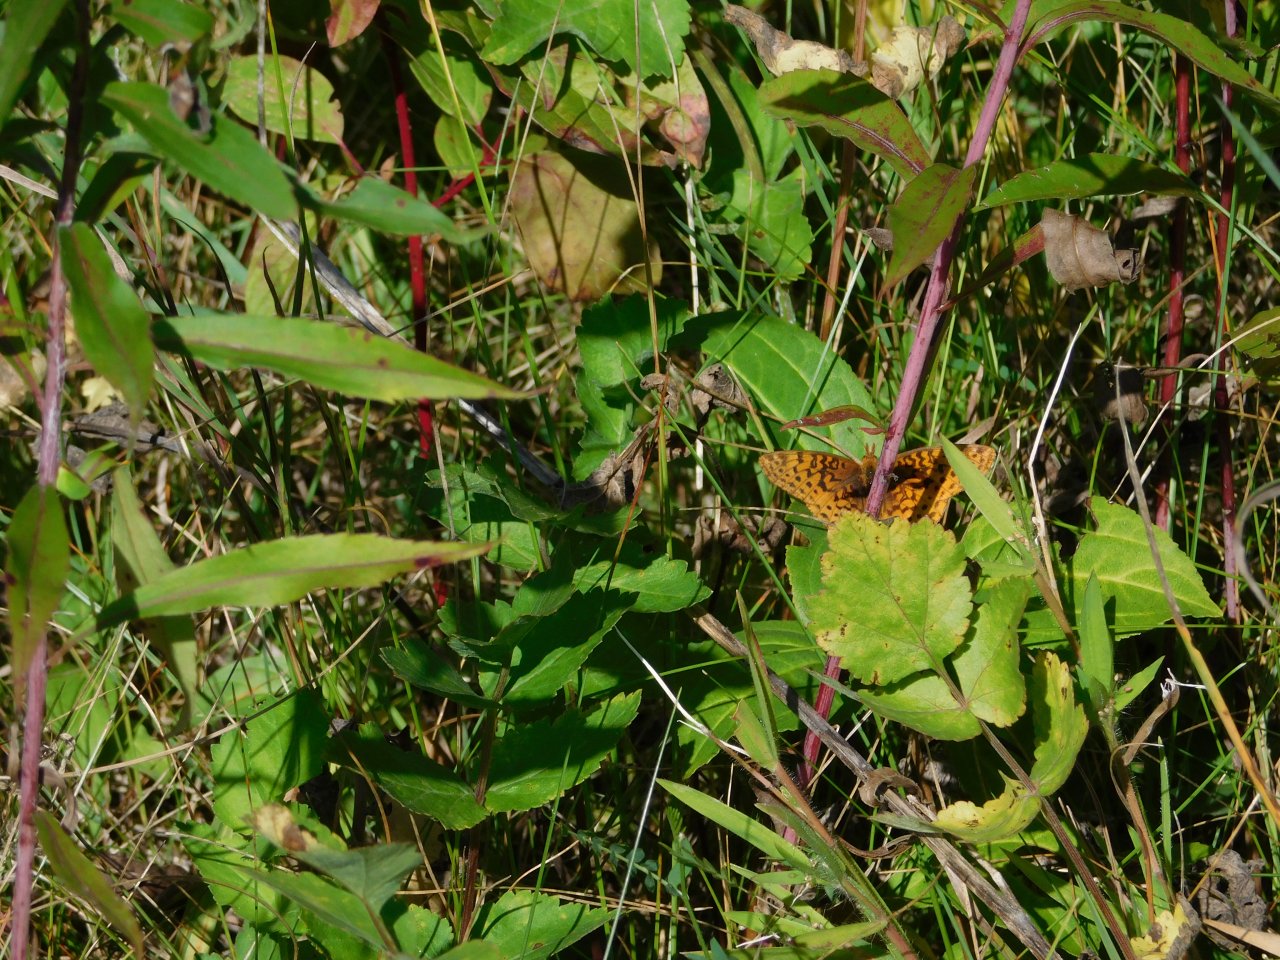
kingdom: Animalia
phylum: Arthropoda
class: Insecta
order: Lepidoptera
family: Nymphalidae
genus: Clossiana
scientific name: Clossiana toddi
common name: Meadow Fritillary
